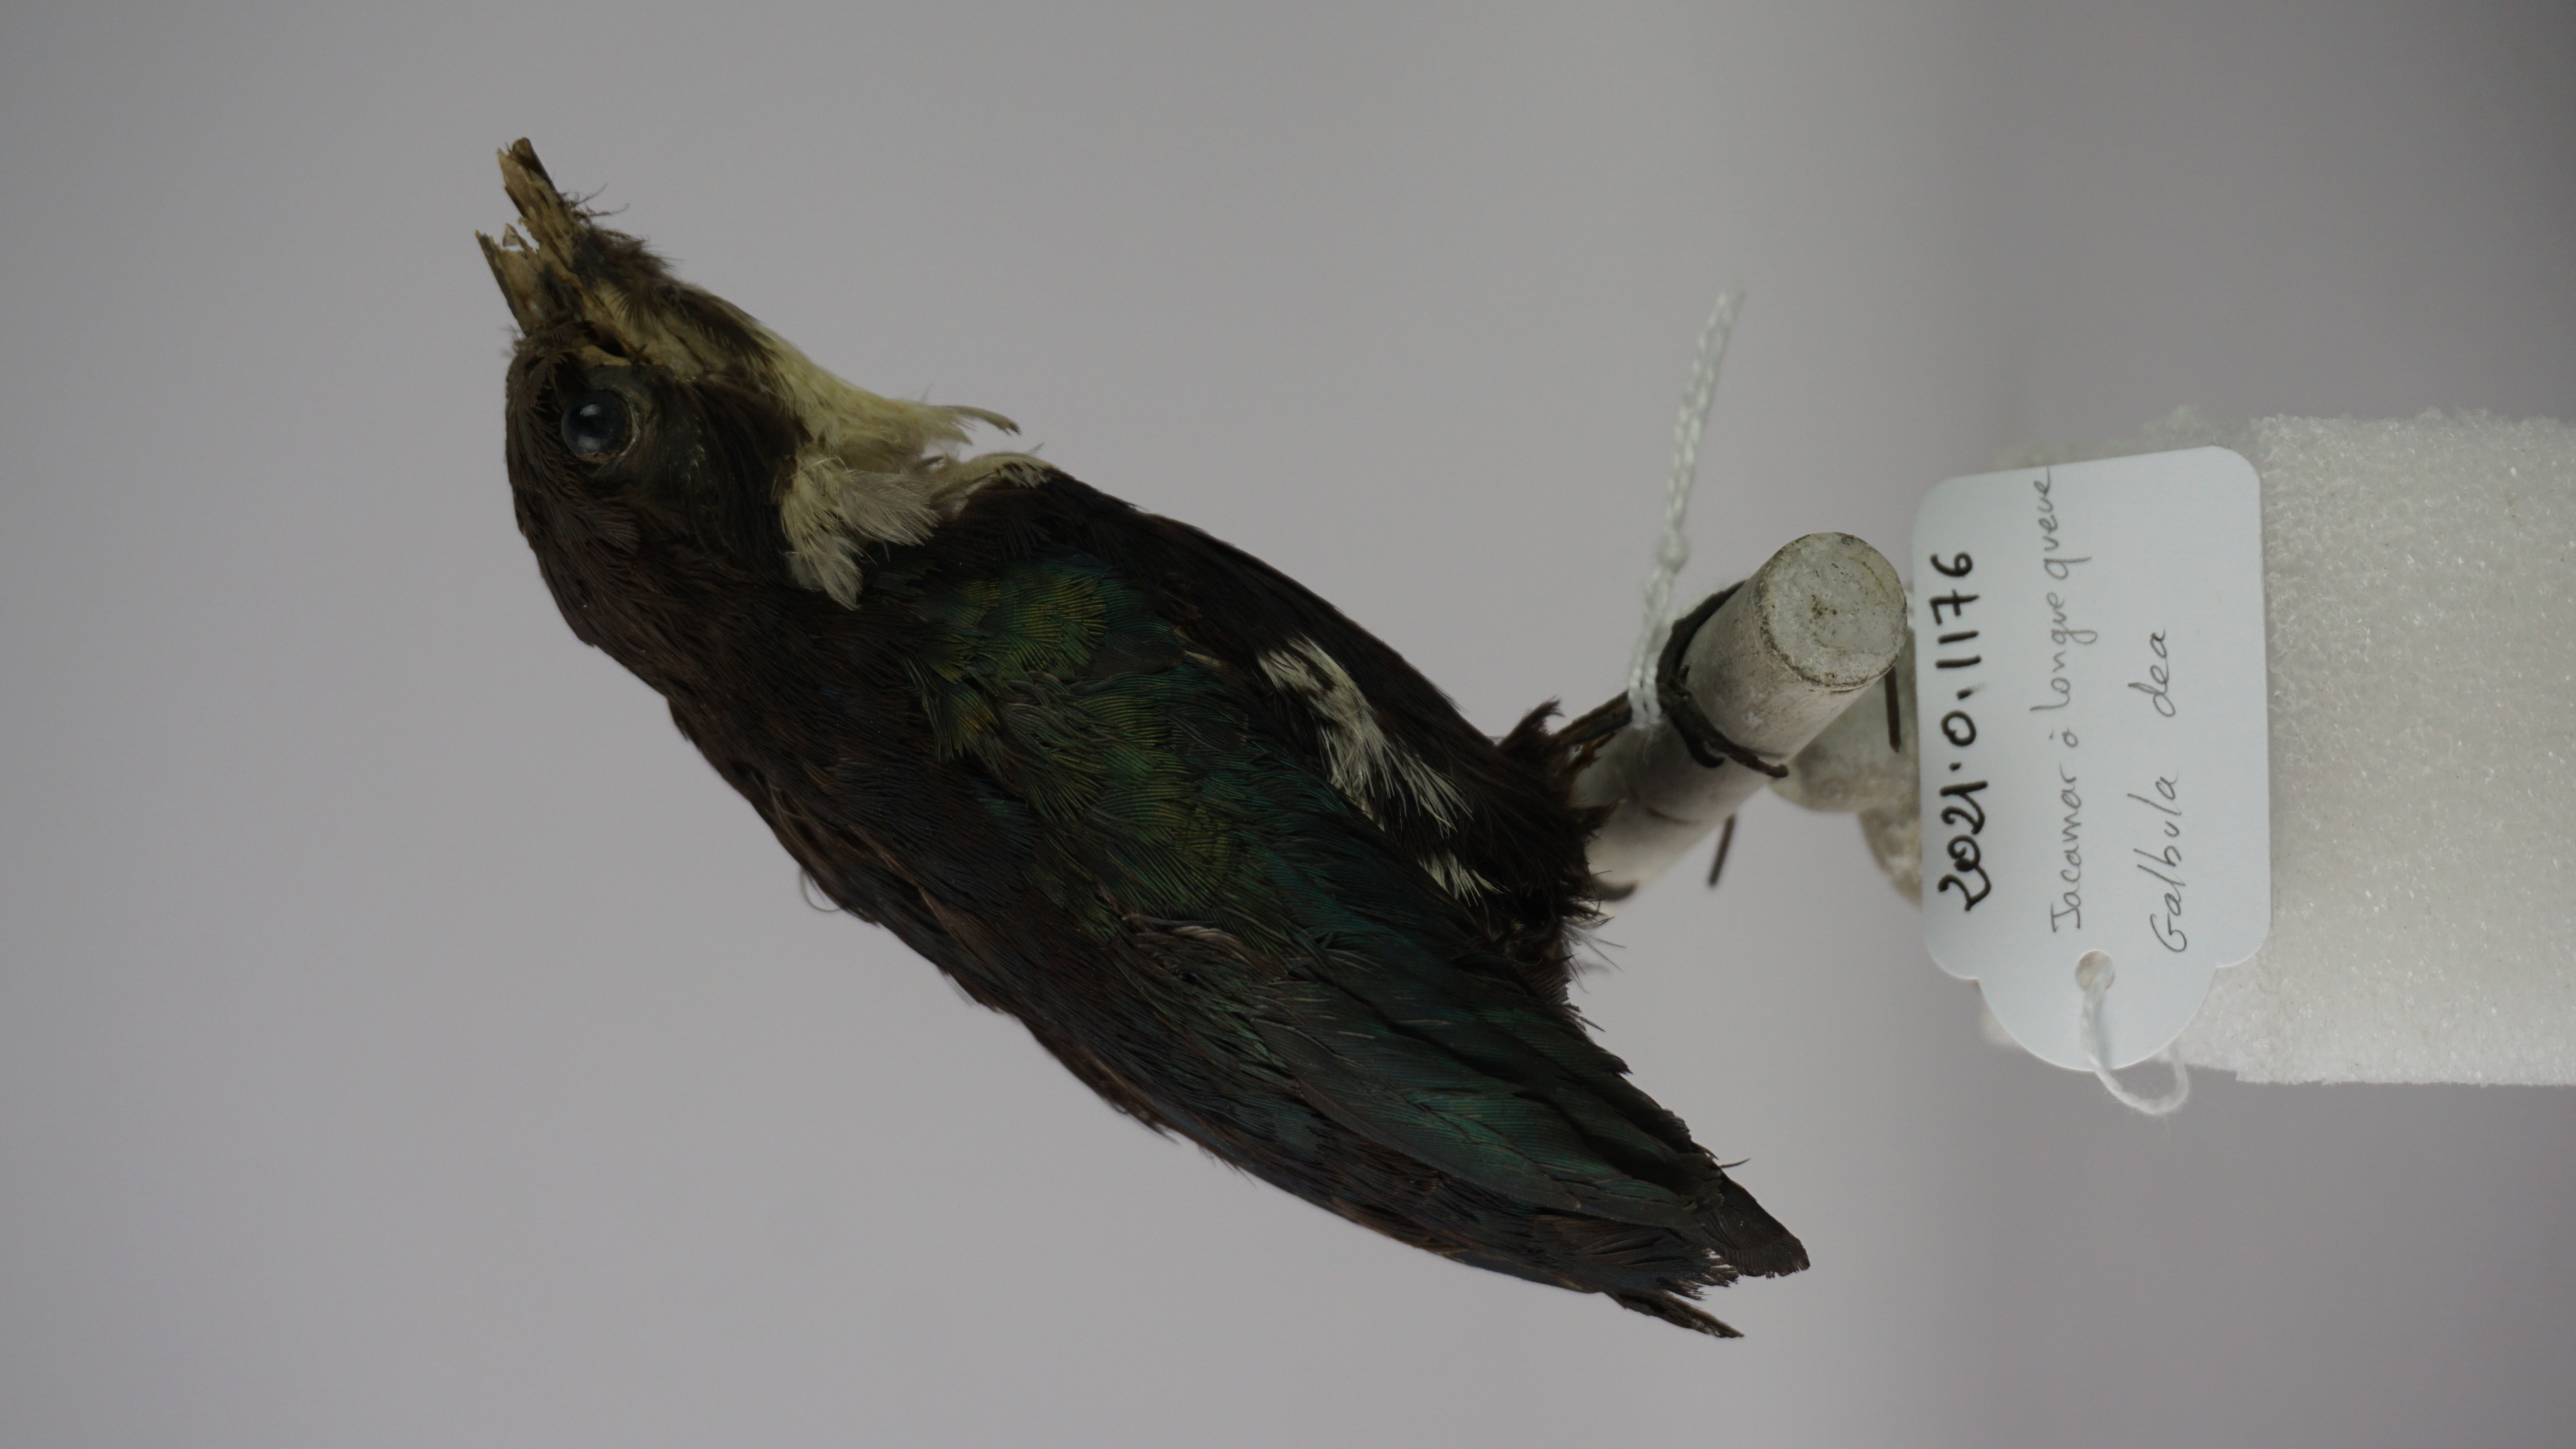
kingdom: Animalia
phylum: Chordata
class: Aves
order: Piciformes
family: Galbulidae
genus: Galbula
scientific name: Galbula dea
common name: Paradise jacamar
